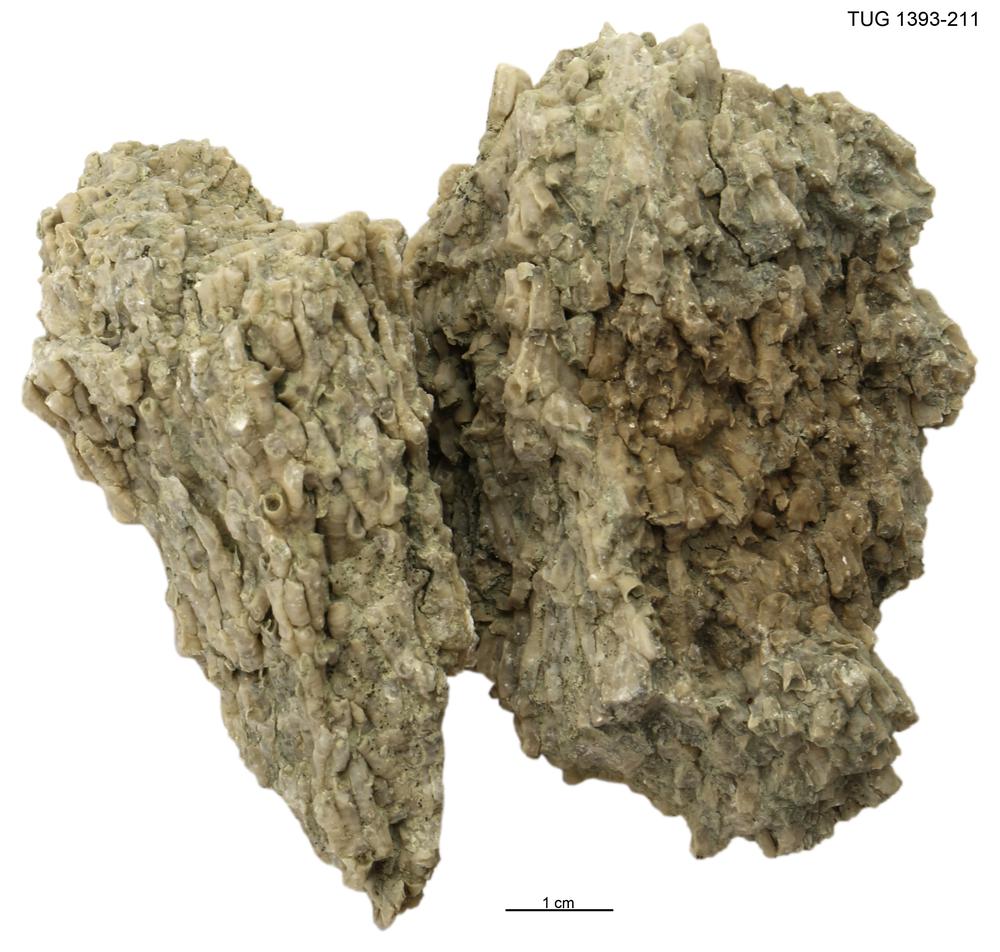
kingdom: Animalia
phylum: Cnidaria
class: Anthozoa
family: Auloporidae
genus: Eofletcheria
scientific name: Eofletcheria orvikui
